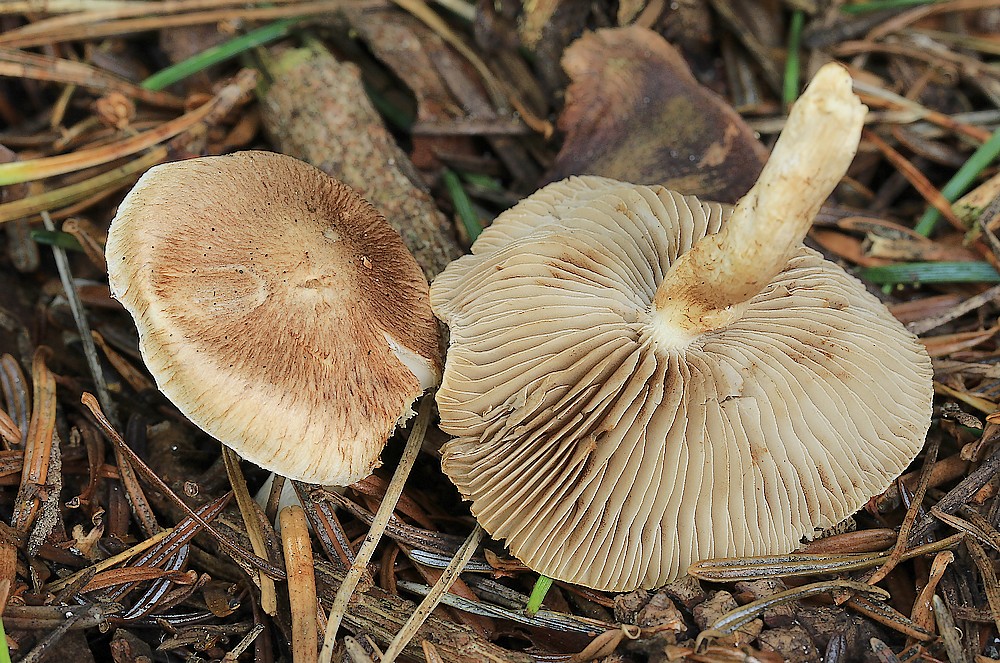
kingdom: Fungi
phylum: Basidiomycota
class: Agaricomycetes
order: Agaricales
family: Inocybaceae
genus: Inocybe
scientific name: Inocybe
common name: trævlhat
